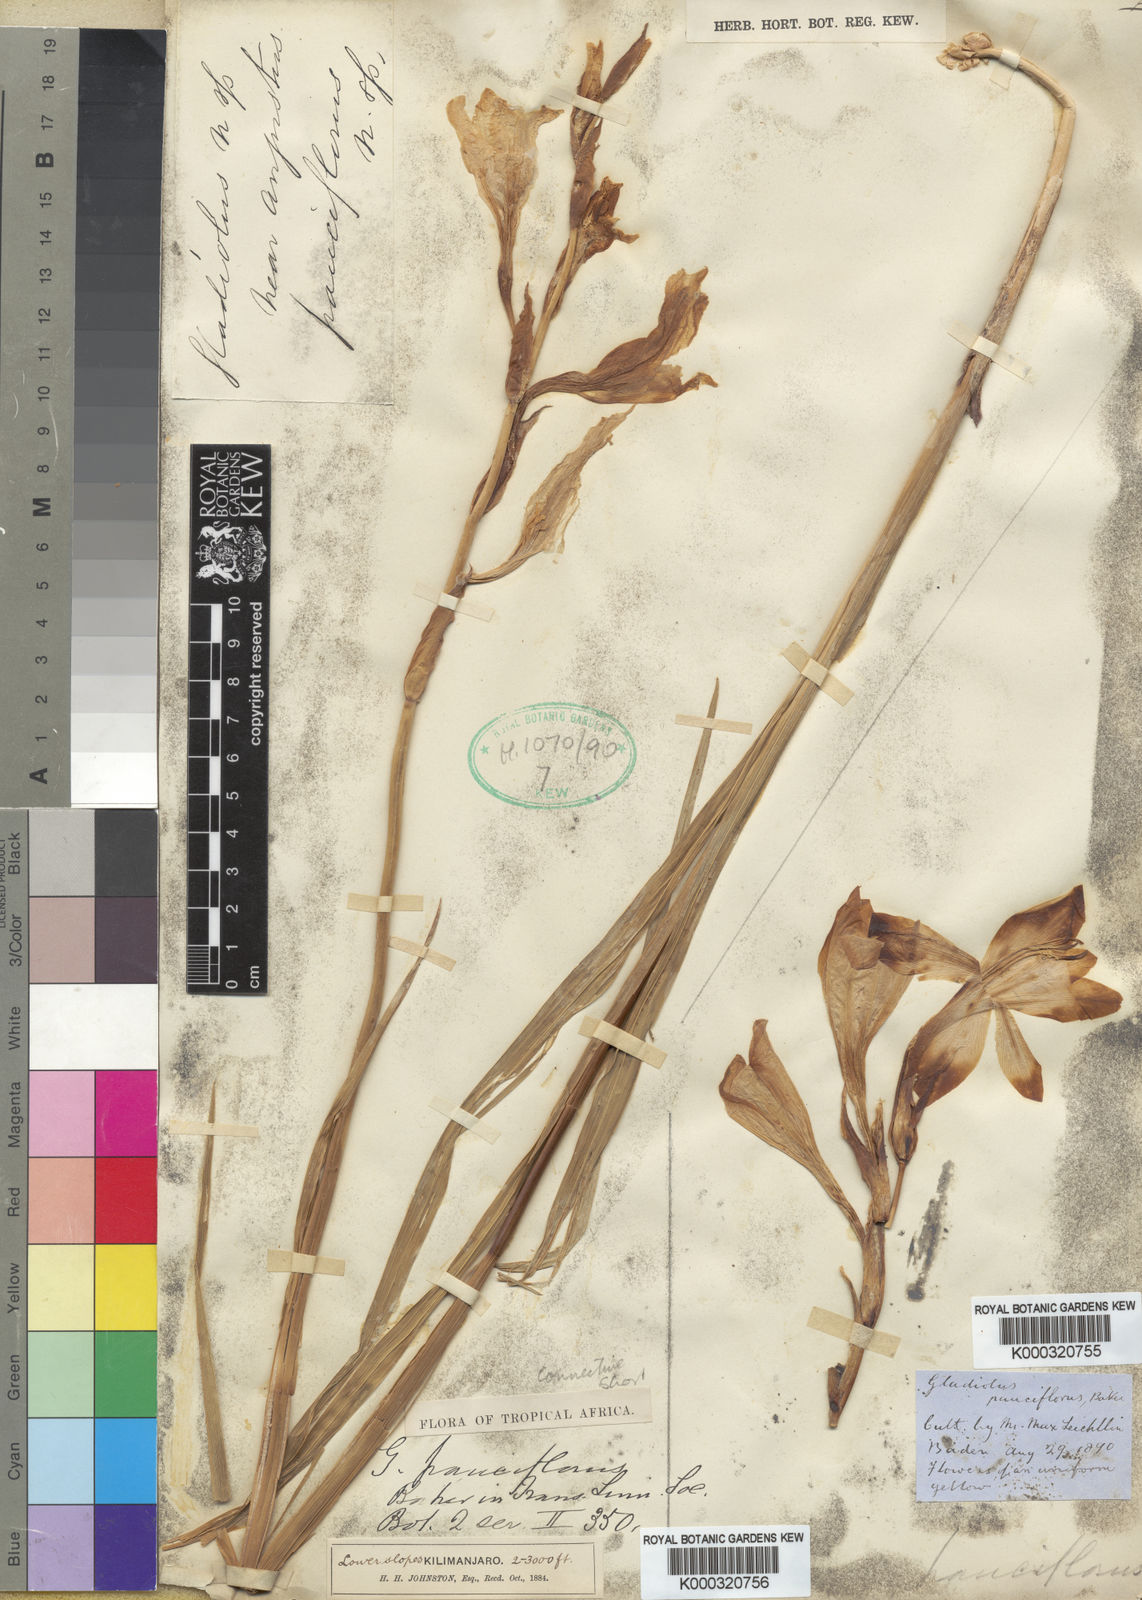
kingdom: Plantae
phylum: Tracheophyta
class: Liliopsida
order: Asparagales
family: Iridaceae
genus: Gladiolus
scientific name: Gladiolus
